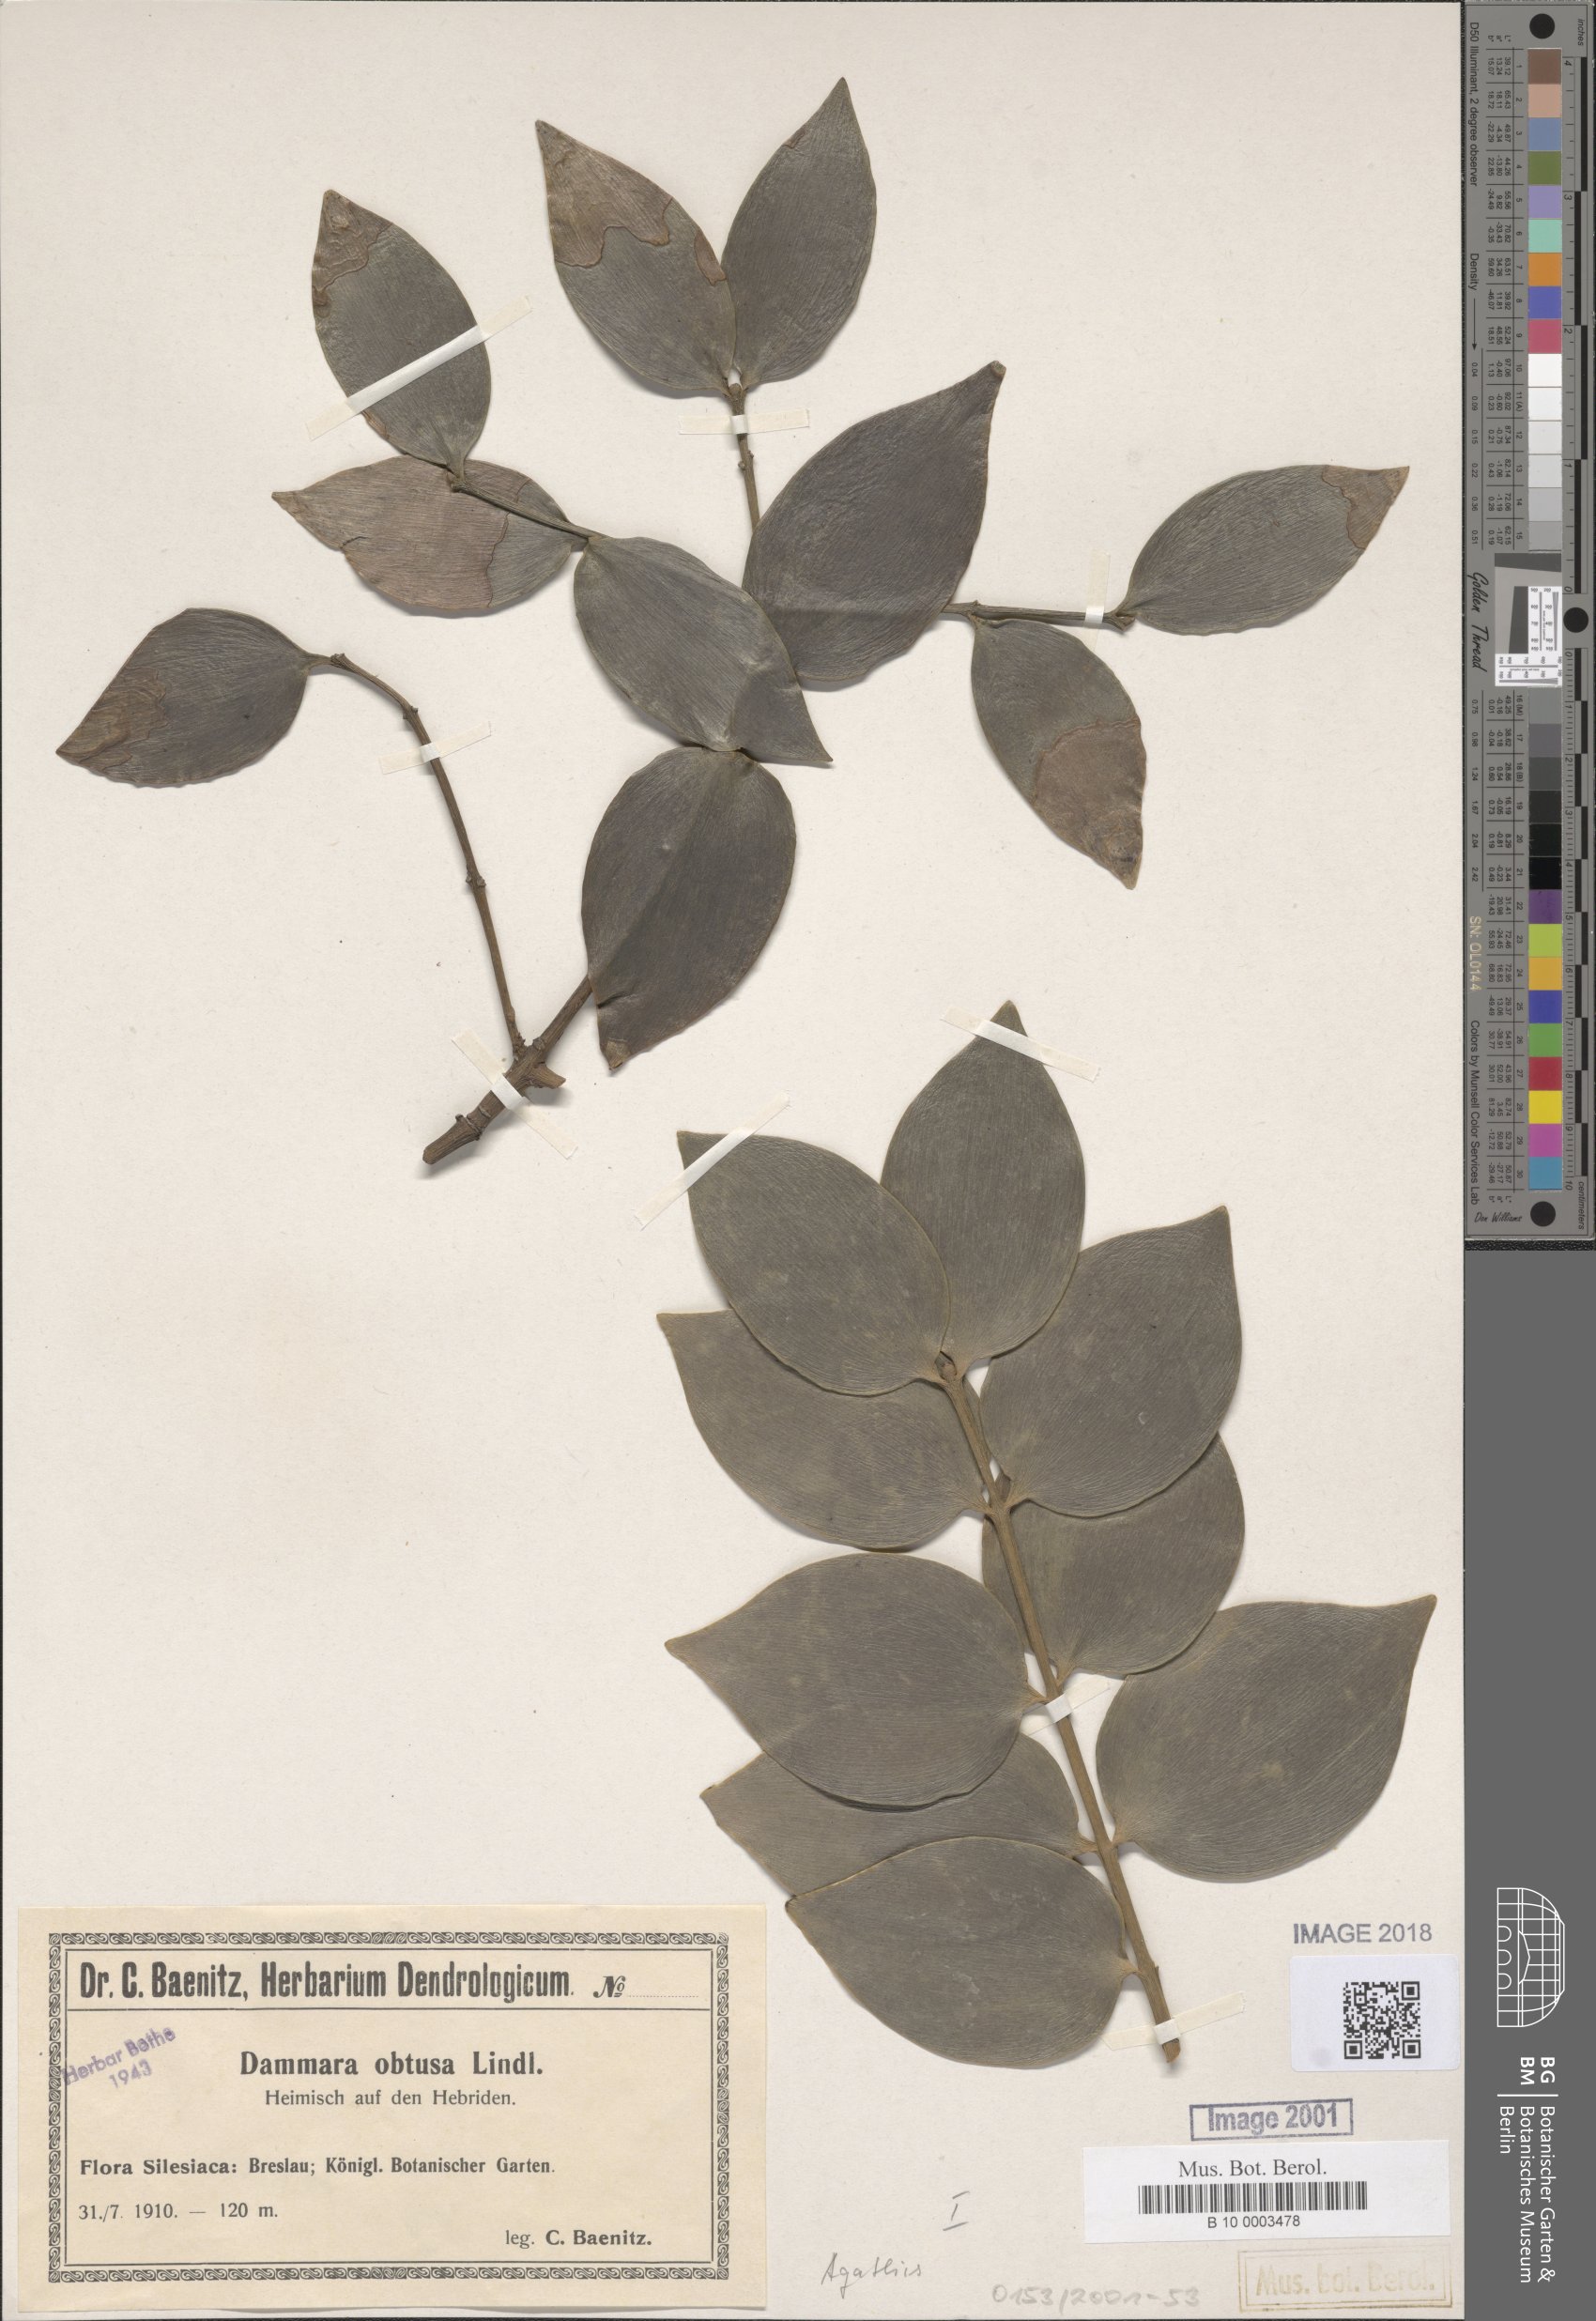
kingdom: Plantae
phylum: Tracheophyta
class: Pinopsida
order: Pinales
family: Araucariaceae
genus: Agathis
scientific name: Agathis macrophylla
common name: Fijian kauri pine
